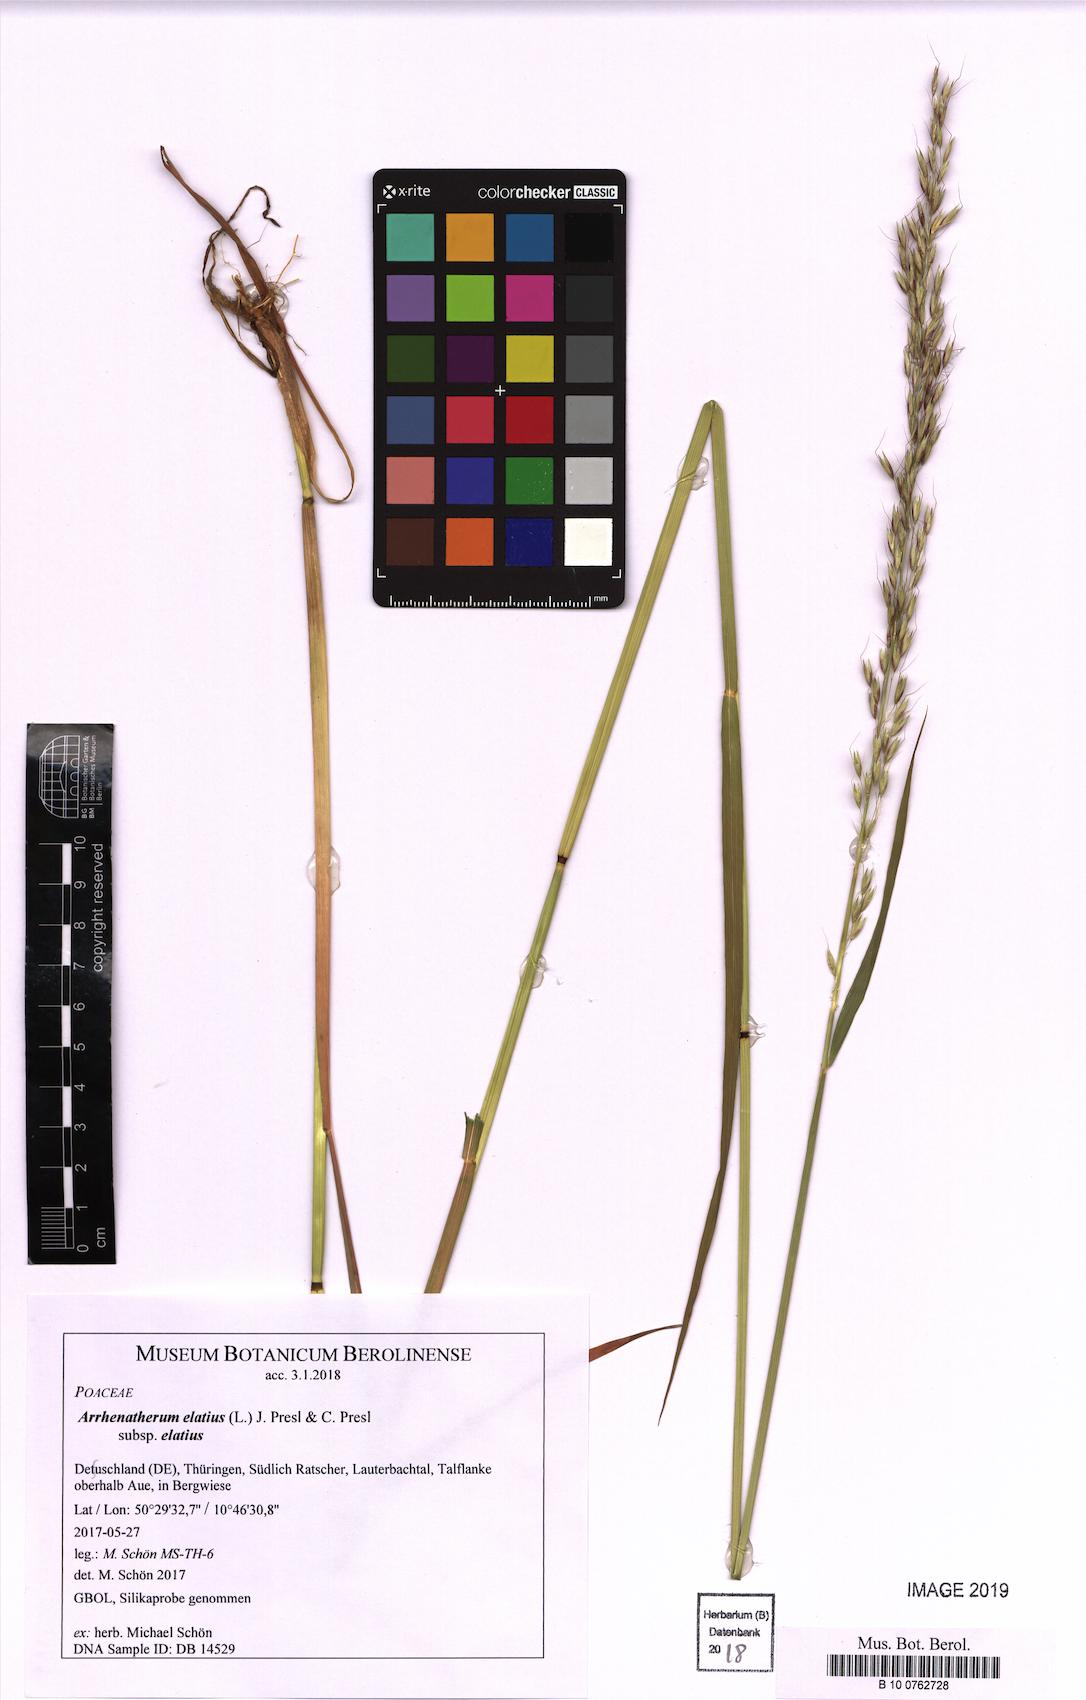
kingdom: Plantae
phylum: Tracheophyta
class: Liliopsida
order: Poales
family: Poaceae
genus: Arrhenatherum
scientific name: Arrhenatherum elatius
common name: Tall oatgrass
